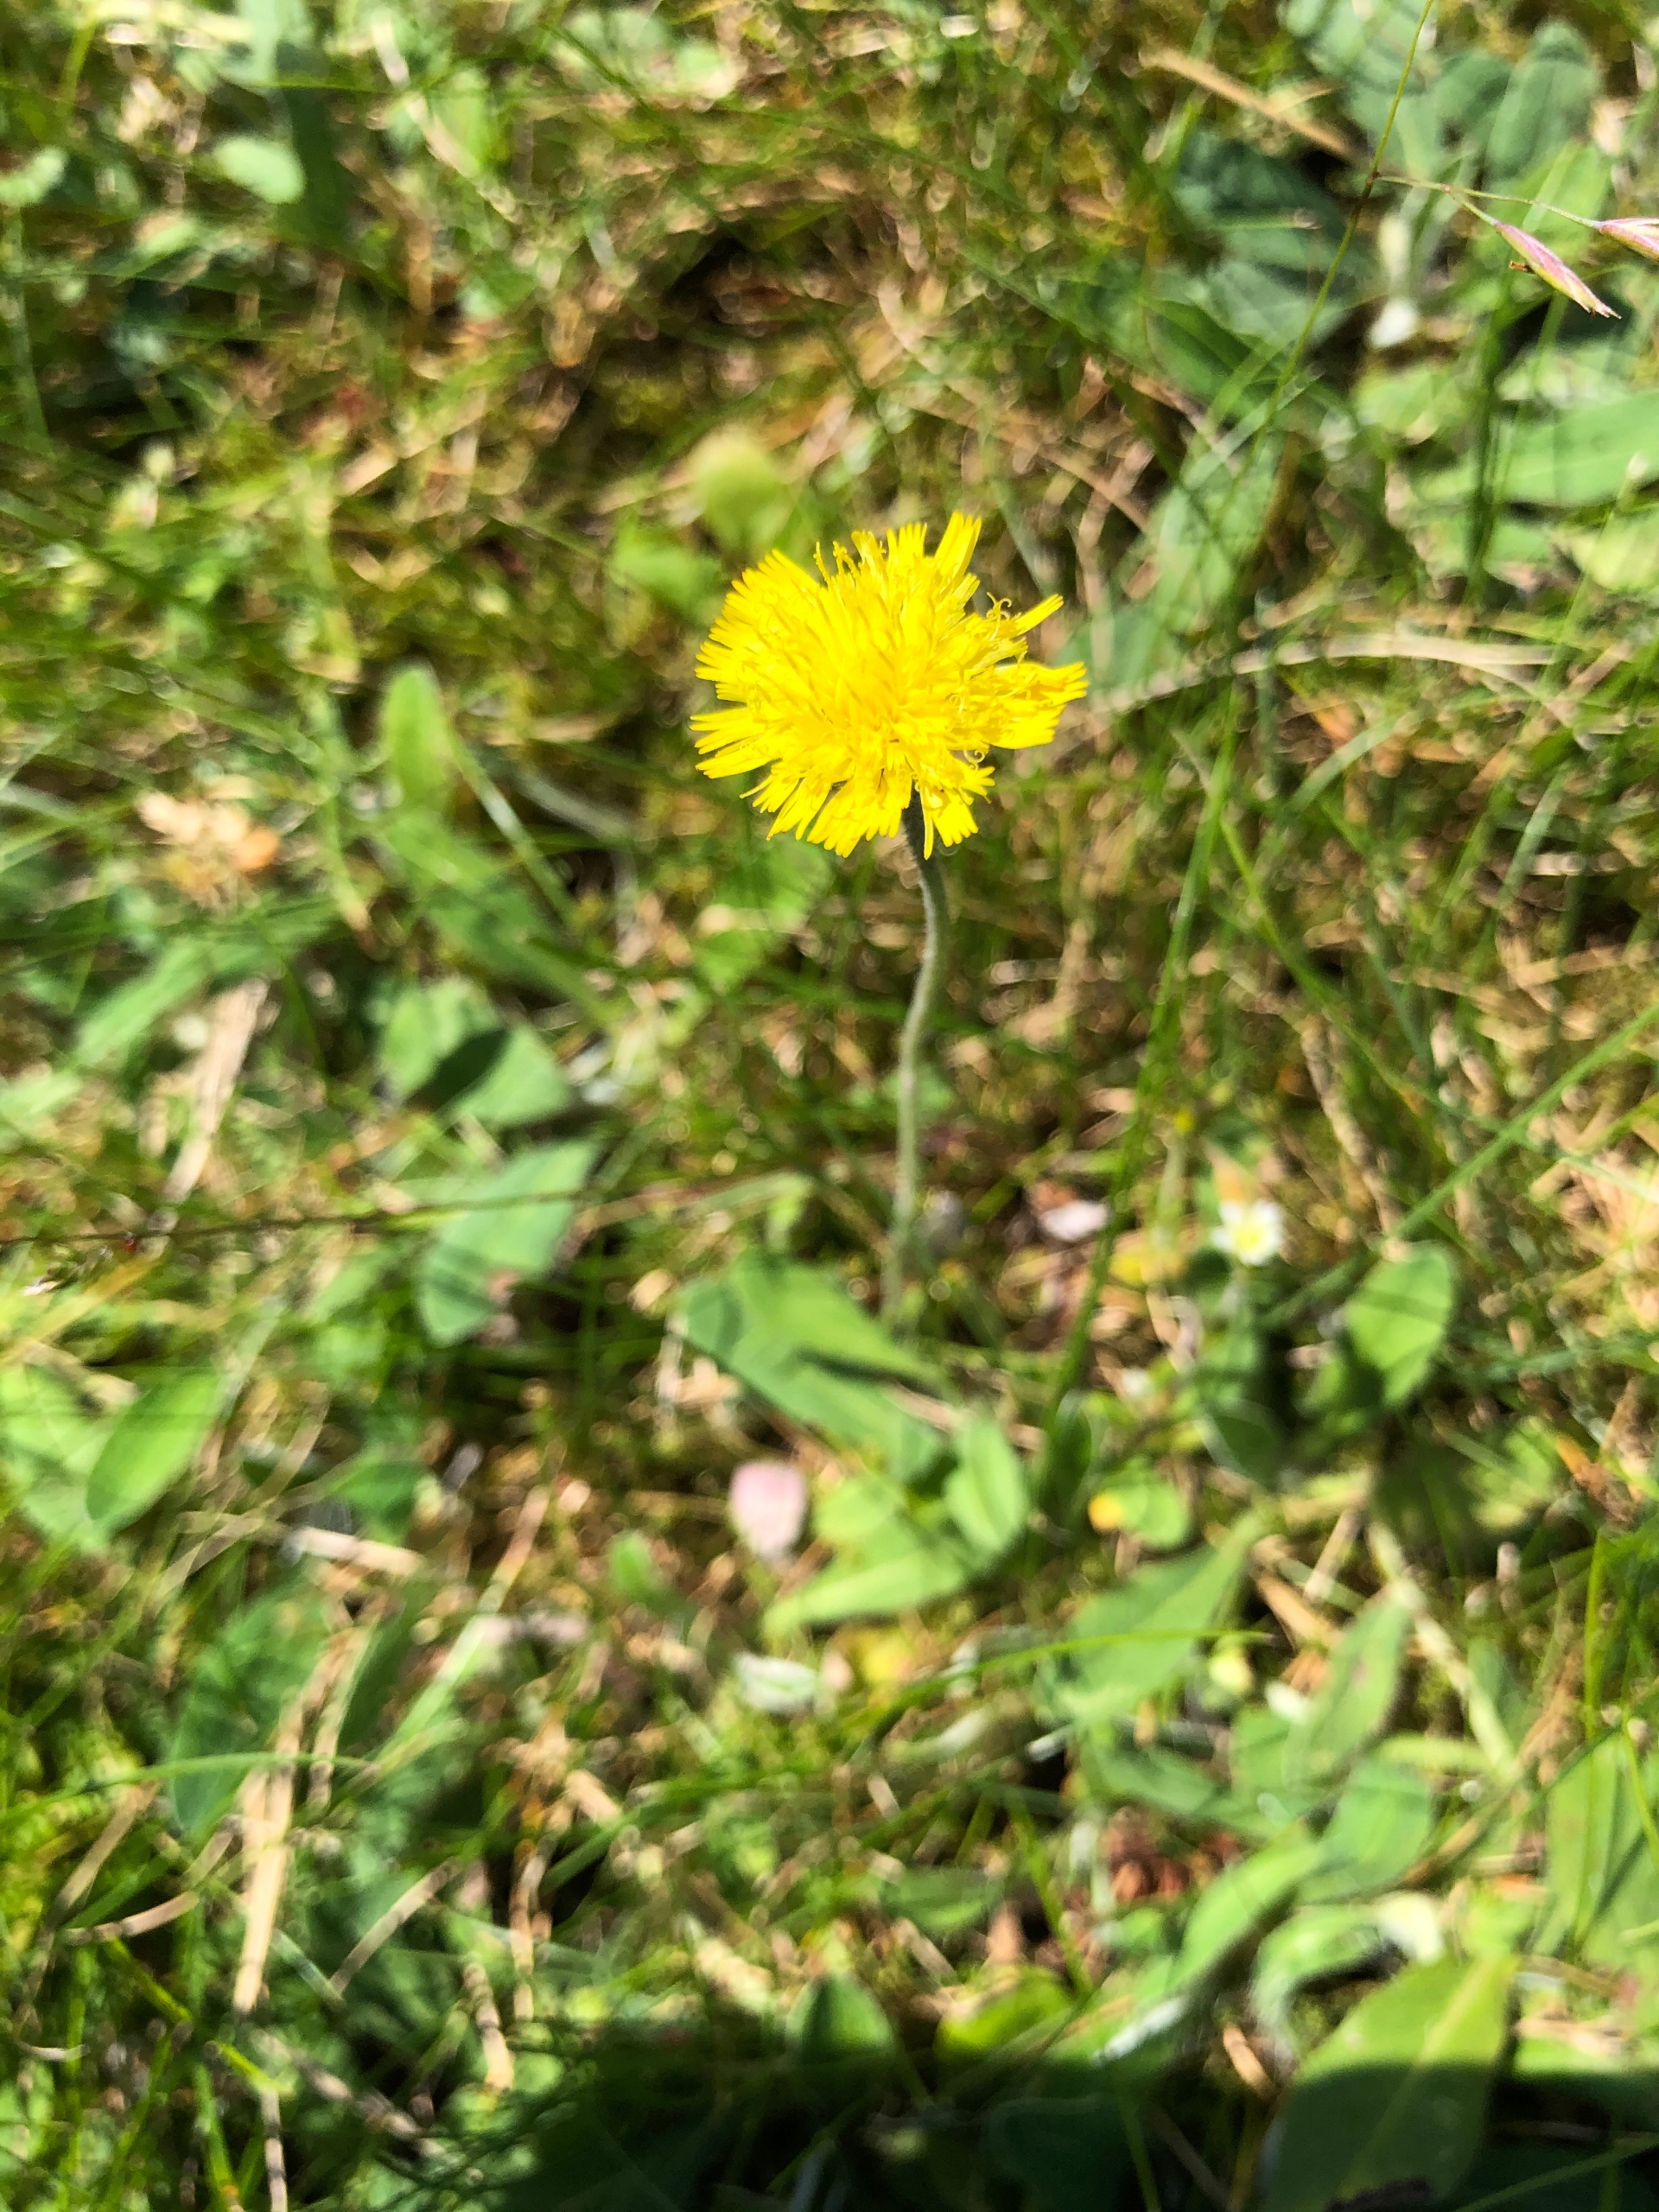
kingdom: Plantae
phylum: Tracheophyta
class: Magnoliopsida
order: Asterales
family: Asteraceae
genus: Pilosella
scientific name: Pilosella officinarum
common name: Håret høgeurt
